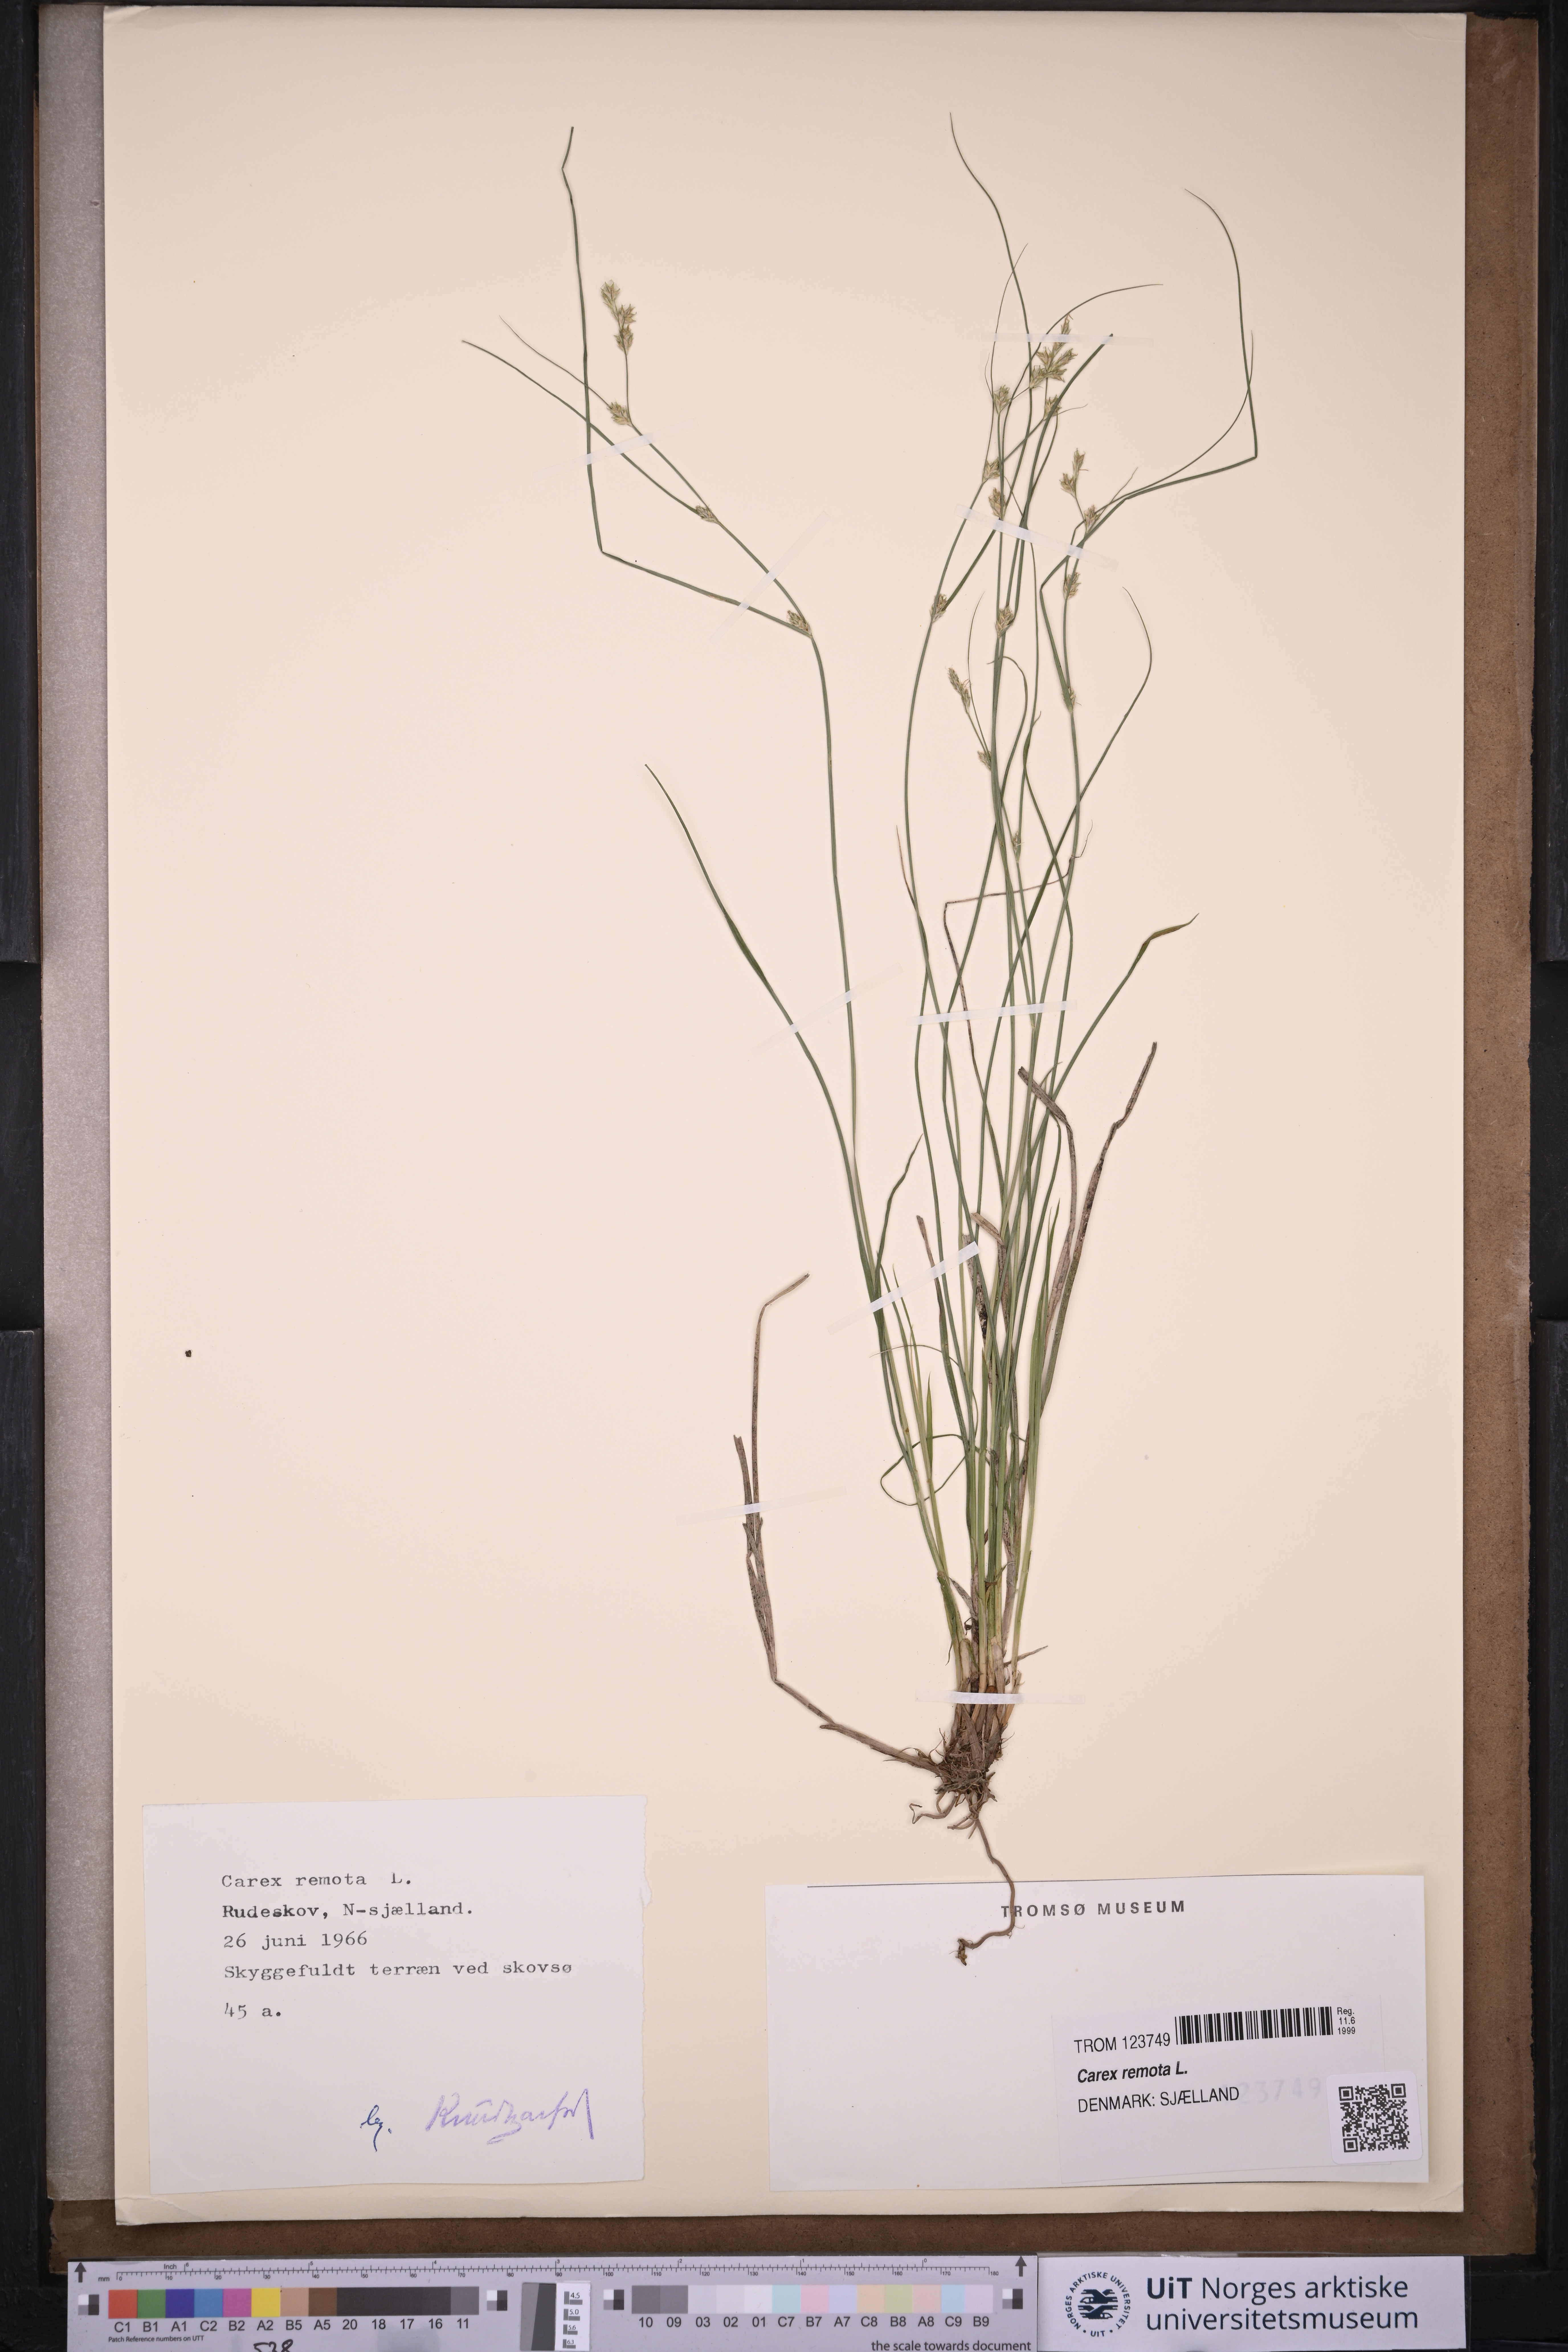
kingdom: Plantae
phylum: Tracheophyta
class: Liliopsida
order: Poales
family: Cyperaceae
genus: Carex
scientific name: Carex remota
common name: Remote sedge
